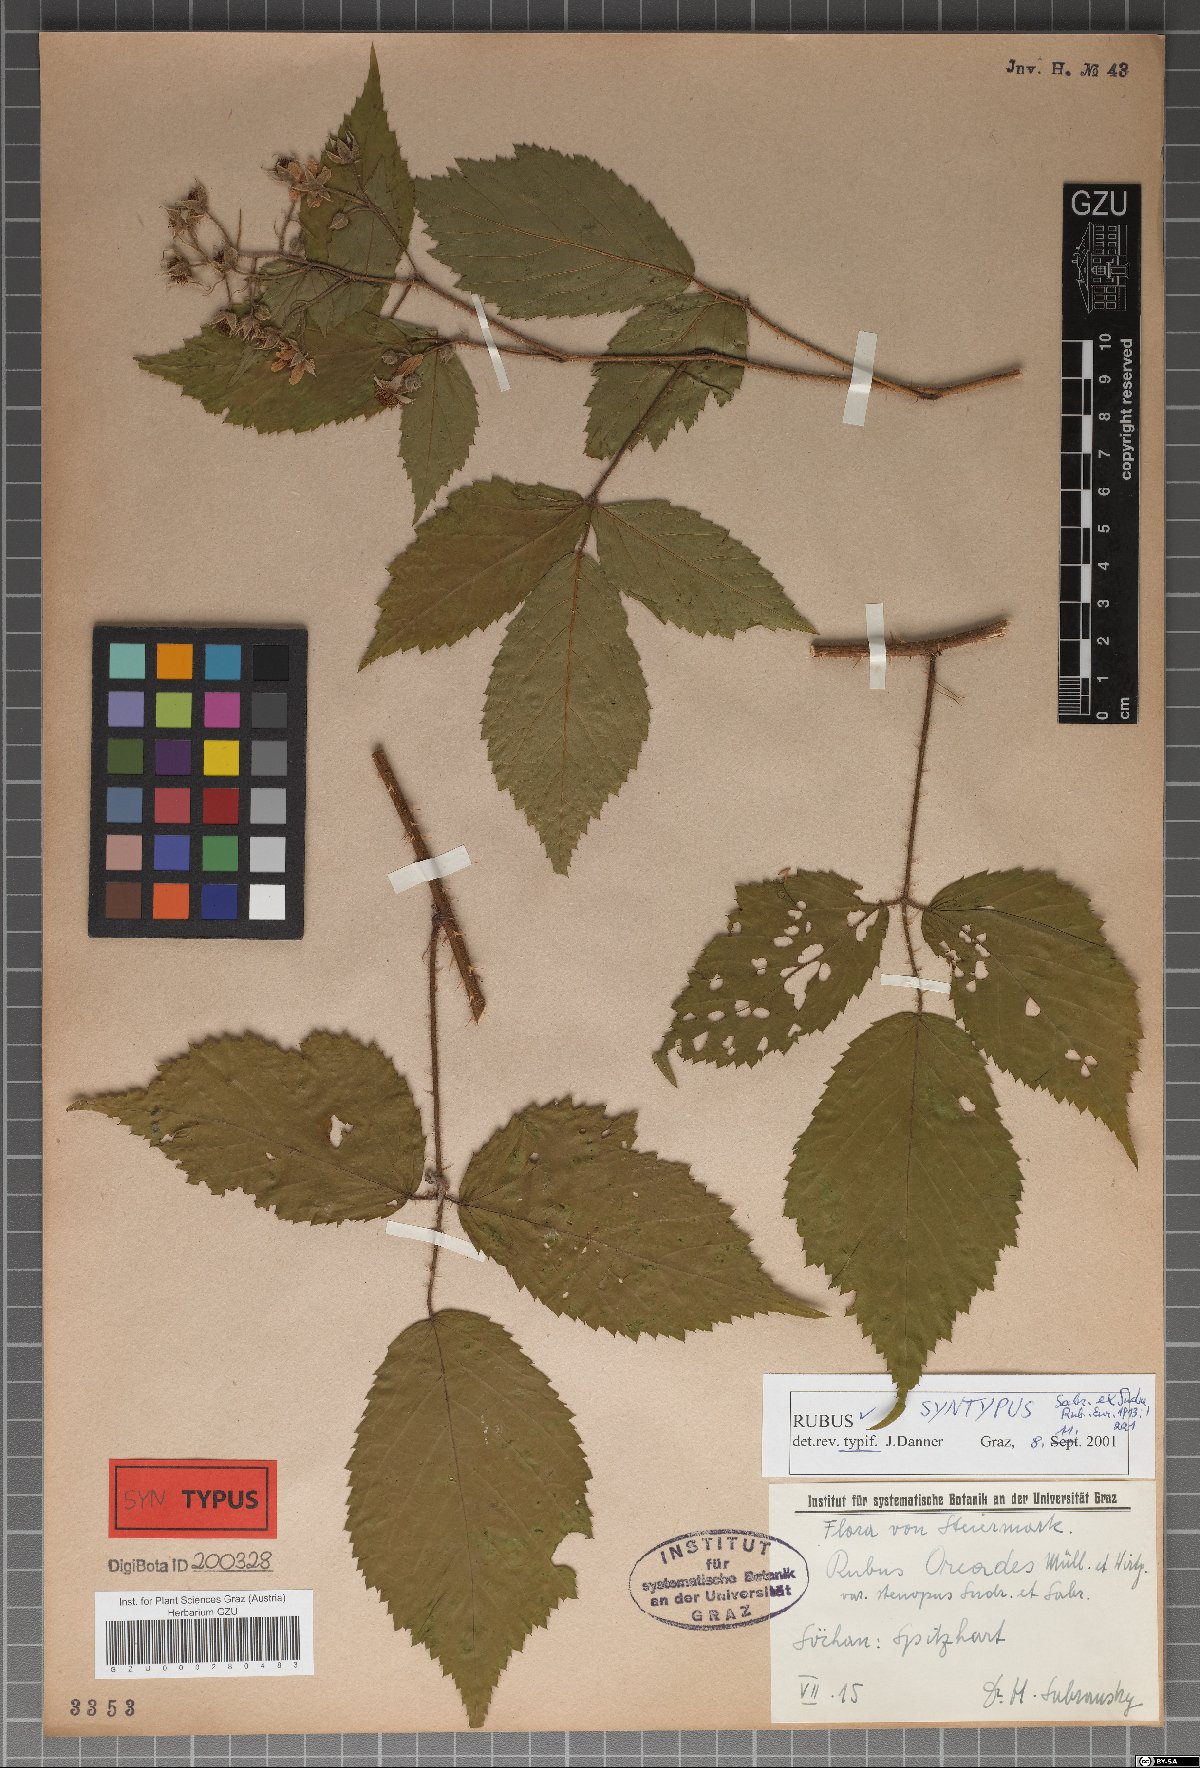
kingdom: Plantae
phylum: Tracheophyta
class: Magnoliopsida
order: Rosales
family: Rosaceae
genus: Rubus
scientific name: Rubus oreades
